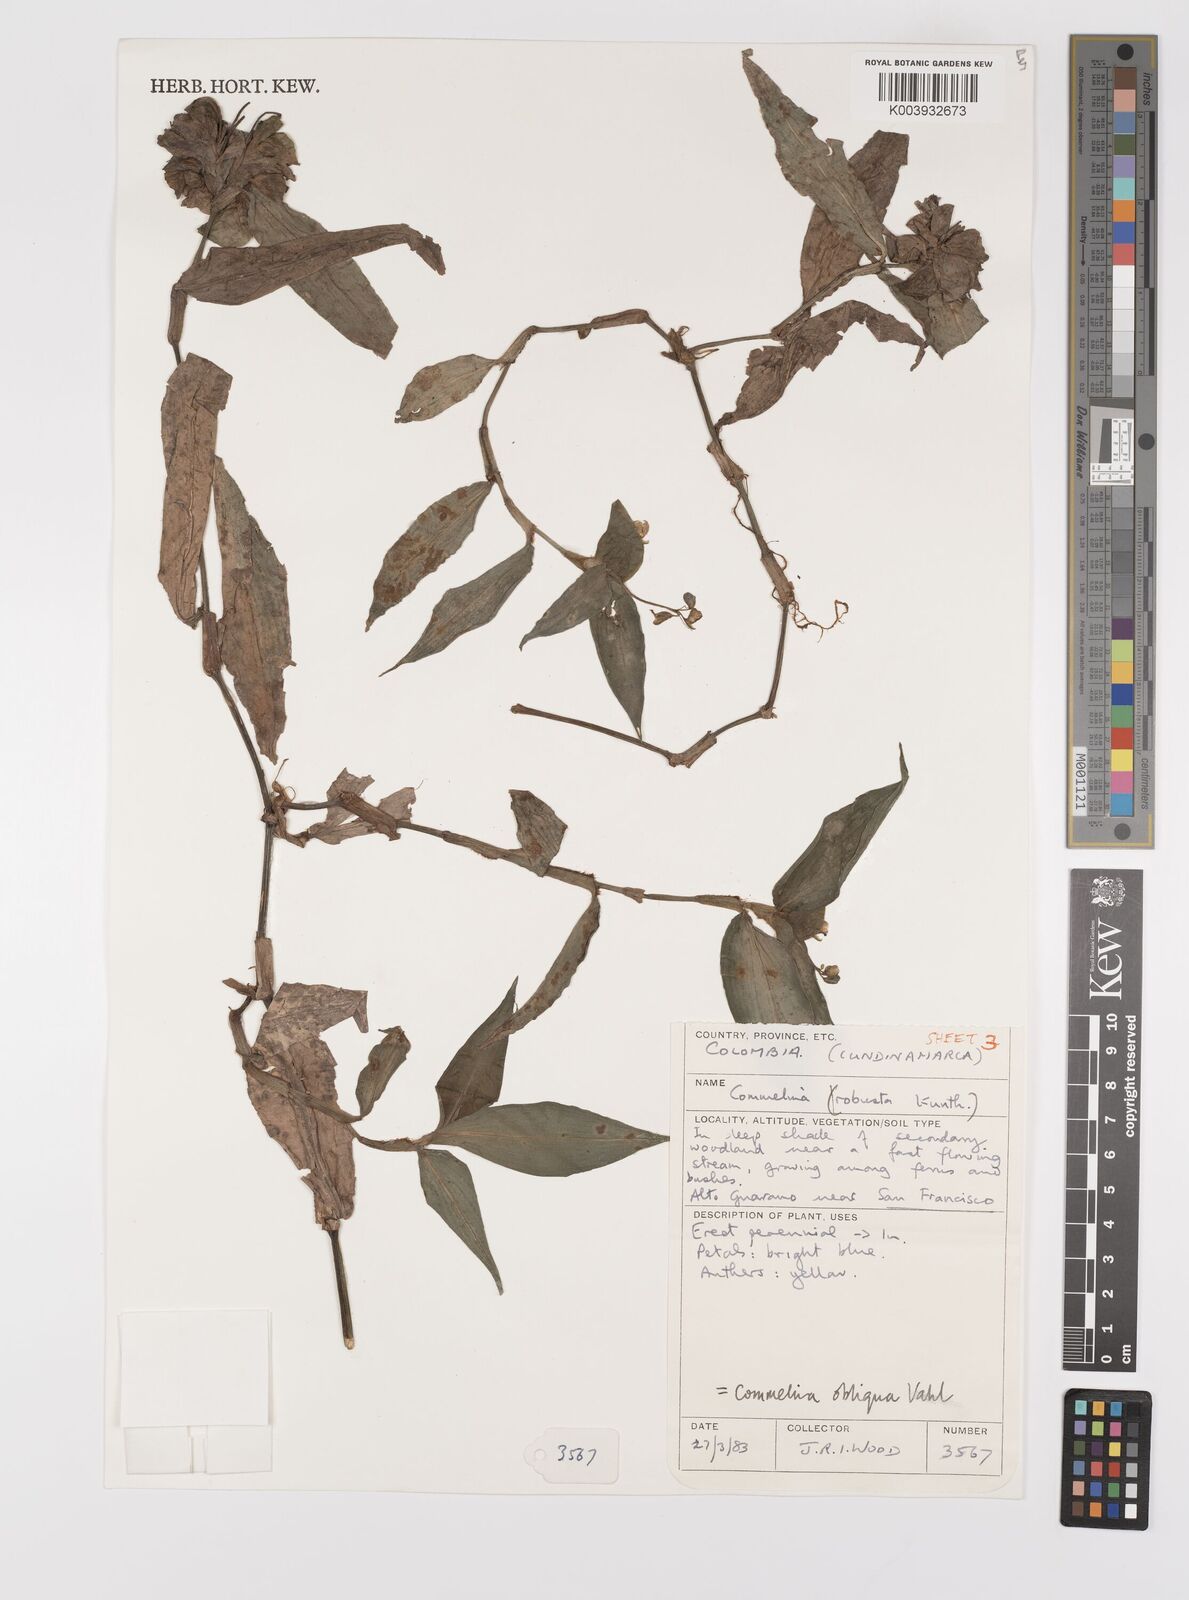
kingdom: Plantae
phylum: Tracheophyta
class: Liliopsida
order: Commelinales
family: Commelinaceae
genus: Commelina
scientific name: Commelina obliqua
